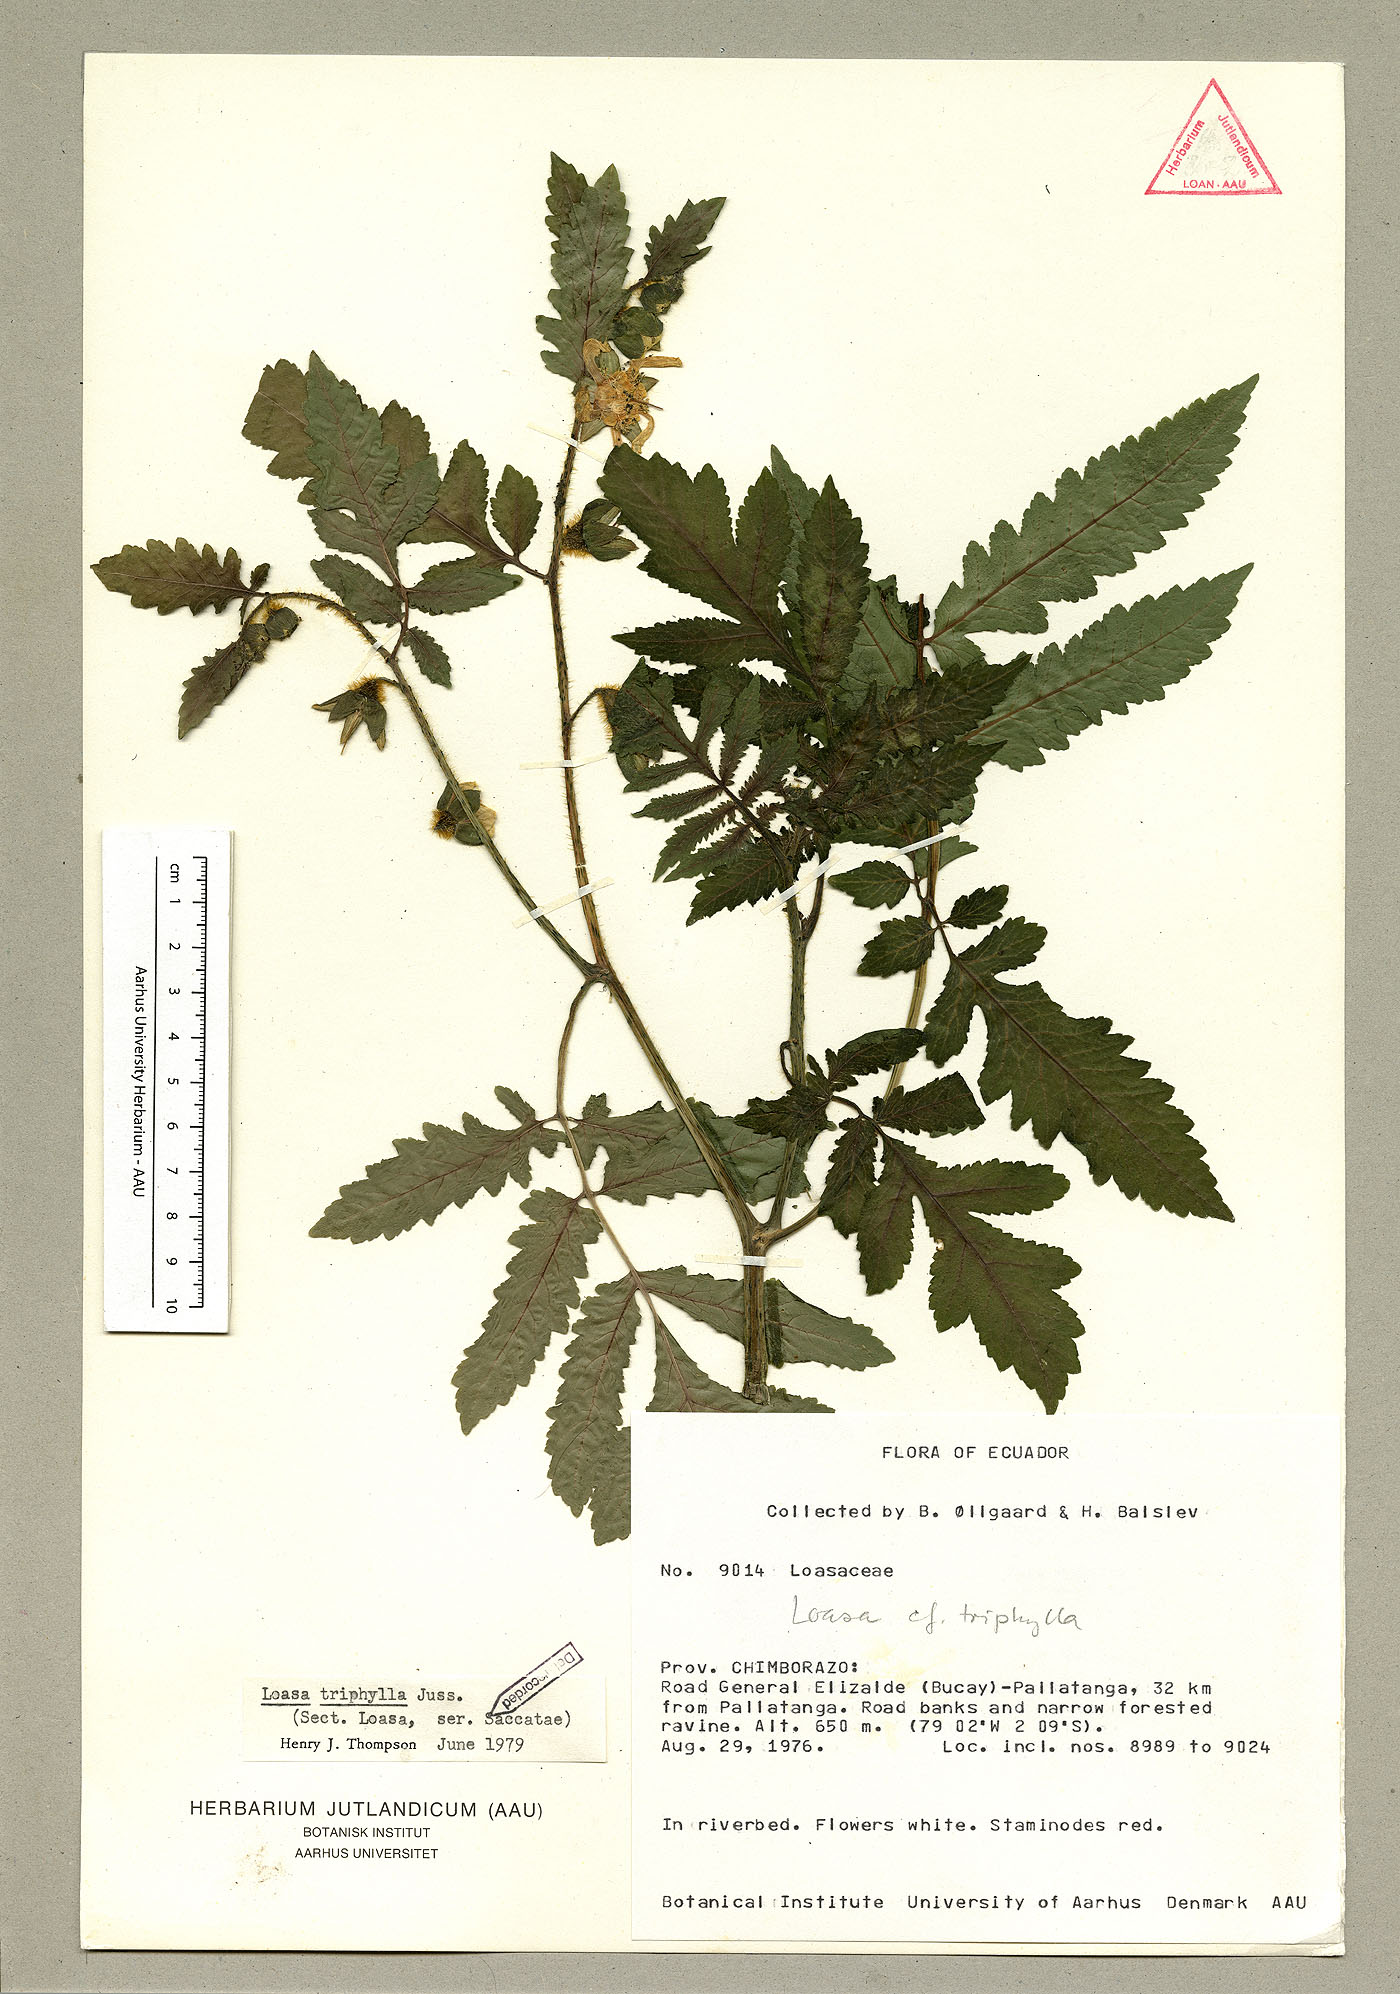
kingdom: Plantae
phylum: Tracheophyta
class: Magnoliopsida
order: Cornales
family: Loasaceae
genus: Nasa
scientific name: Nasa dyeri
